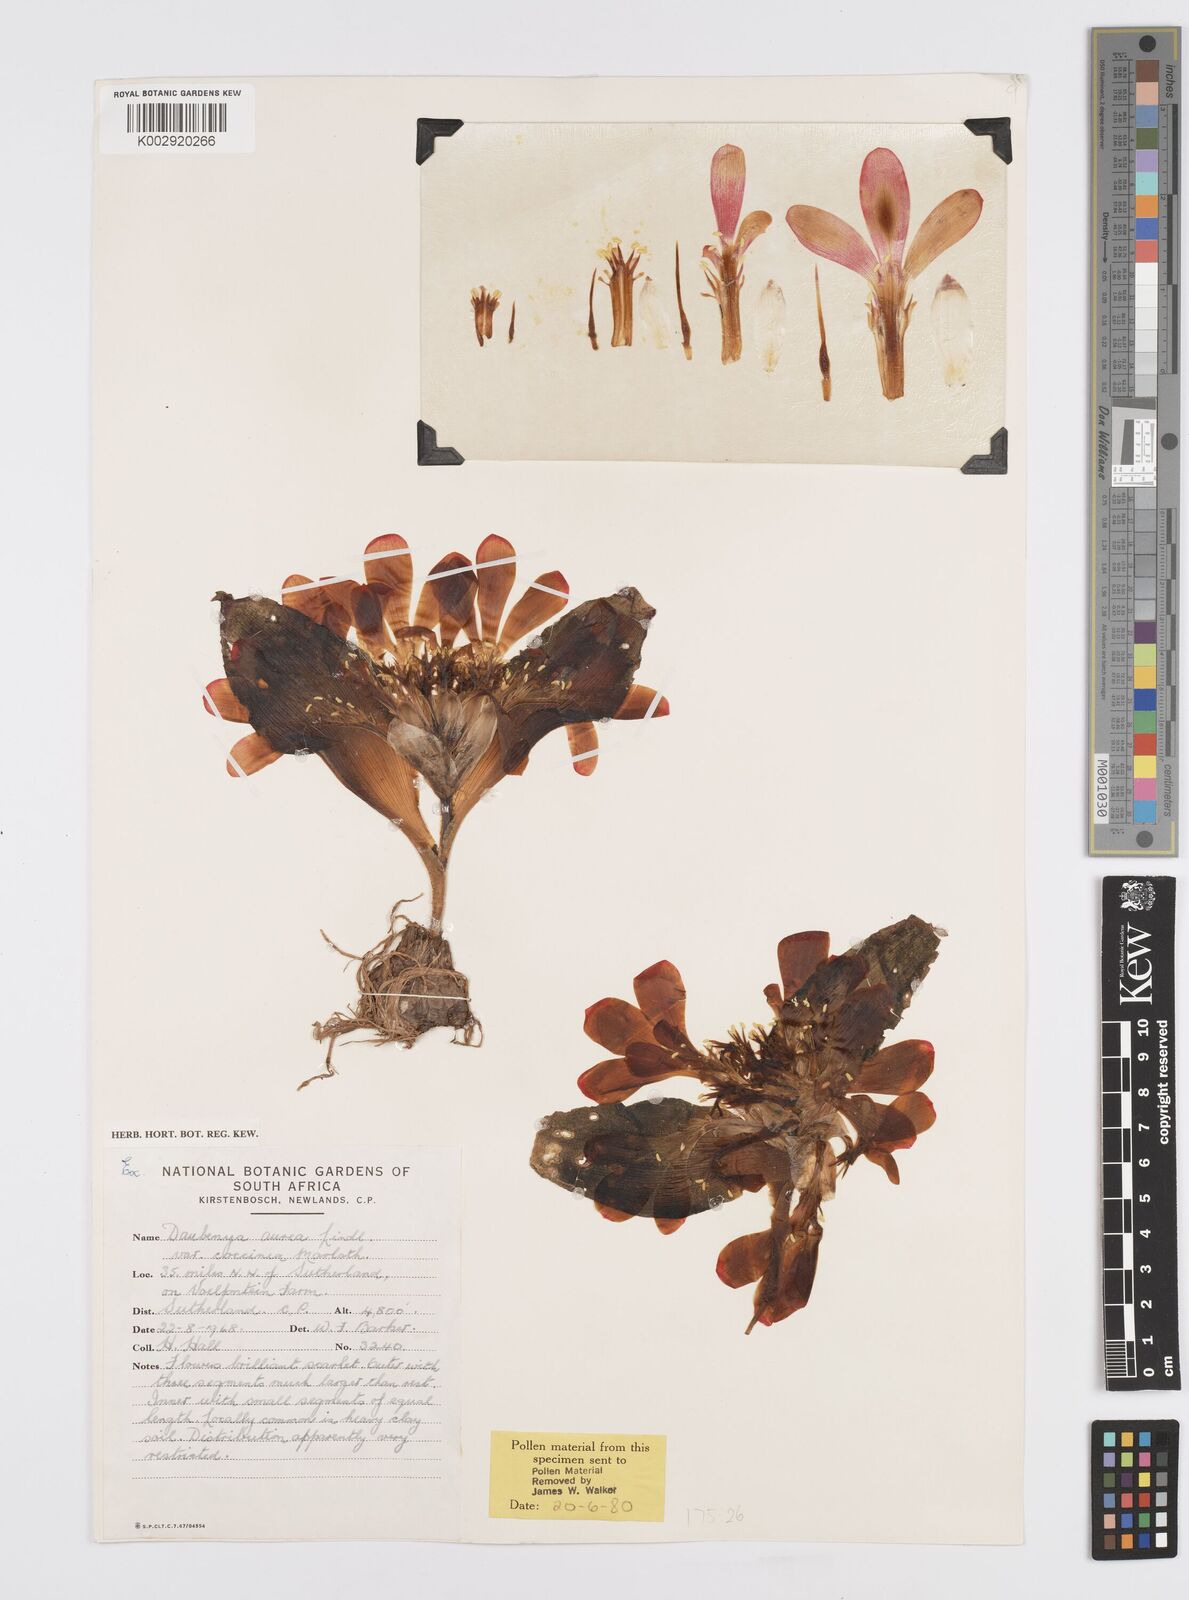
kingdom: Plantae
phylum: Tracheophyta
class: Liliopsida
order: Asparagales
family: Asparagaceae
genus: Daubenya
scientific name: Daubenya aurea
